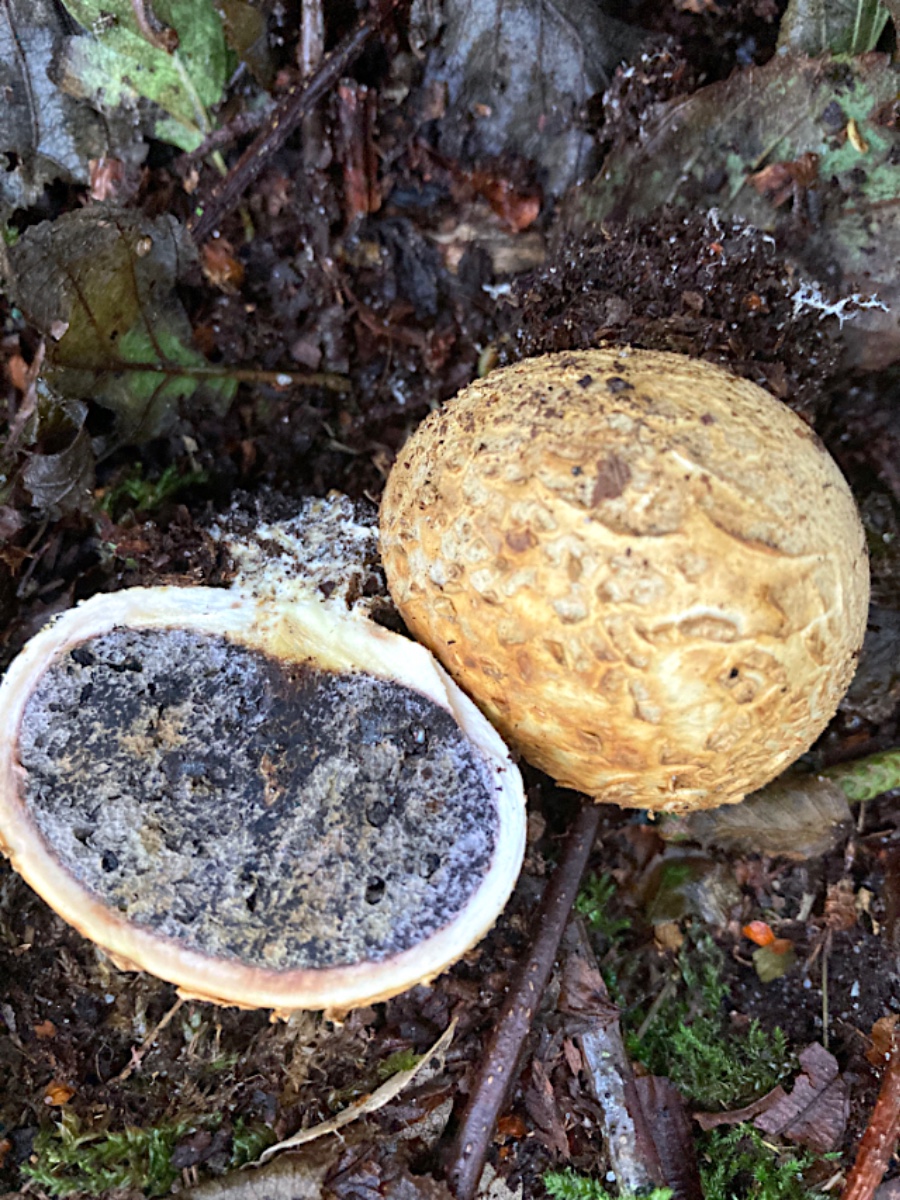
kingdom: Fungi
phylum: Basidiomycota
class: Agaricomycetes
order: Boletales
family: Sclerodermataceae
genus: Scleroderma
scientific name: Scleroderma citrinum
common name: almindelig bruskbold
